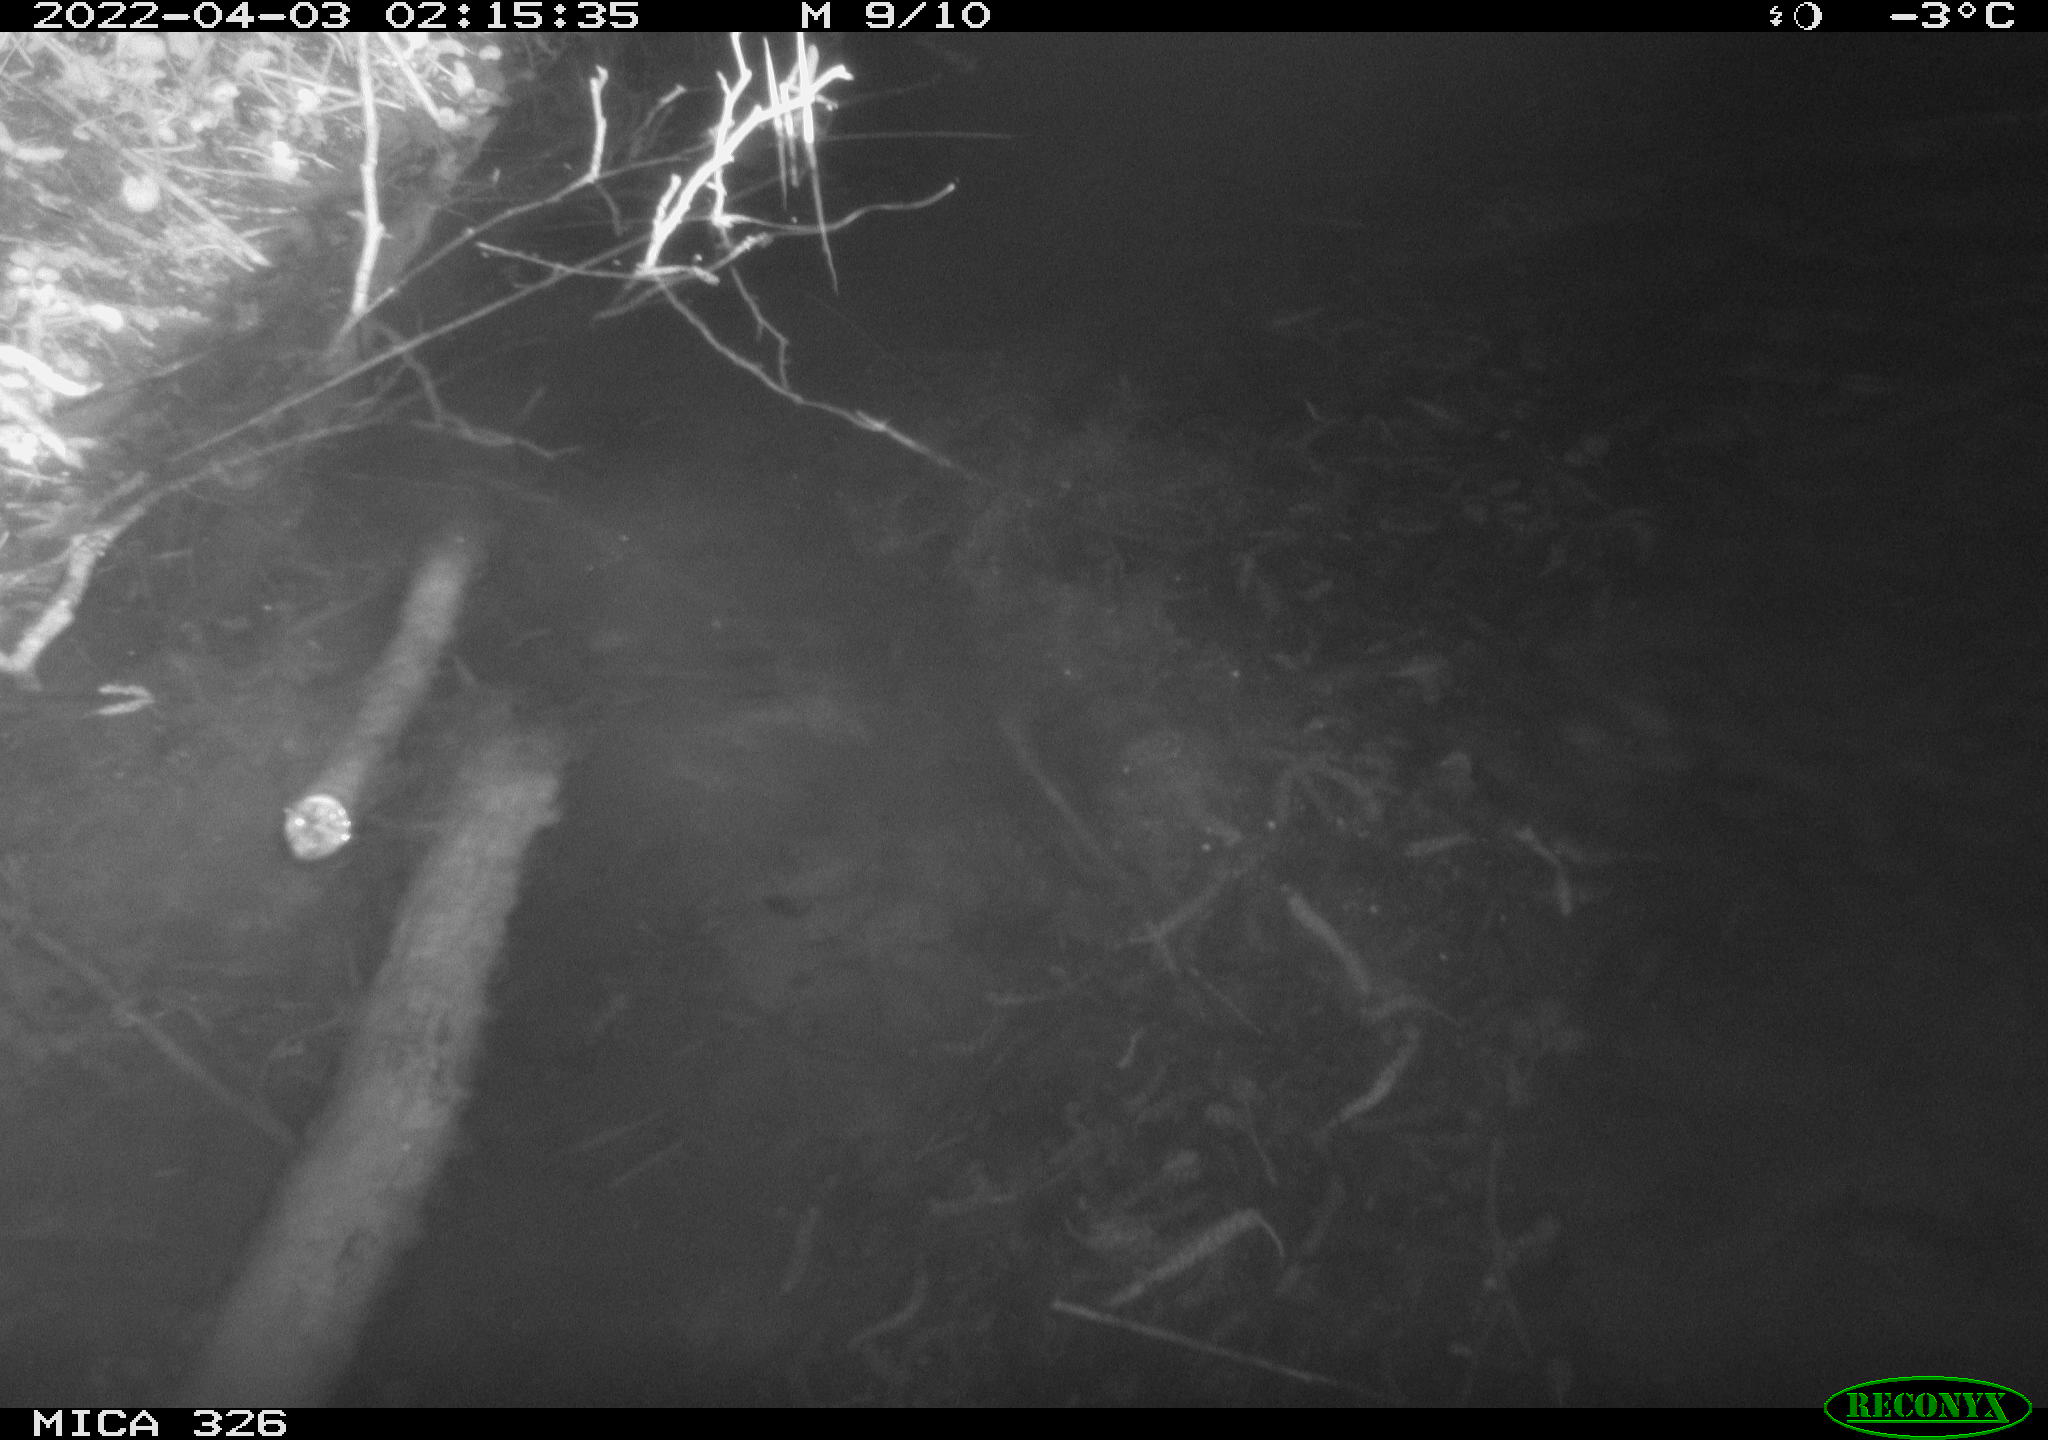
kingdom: Animalia
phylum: Chordata
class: Mammalia
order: Rodentia
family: Muridae
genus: Rattus
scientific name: Rattus norvegicus
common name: Brown rat
